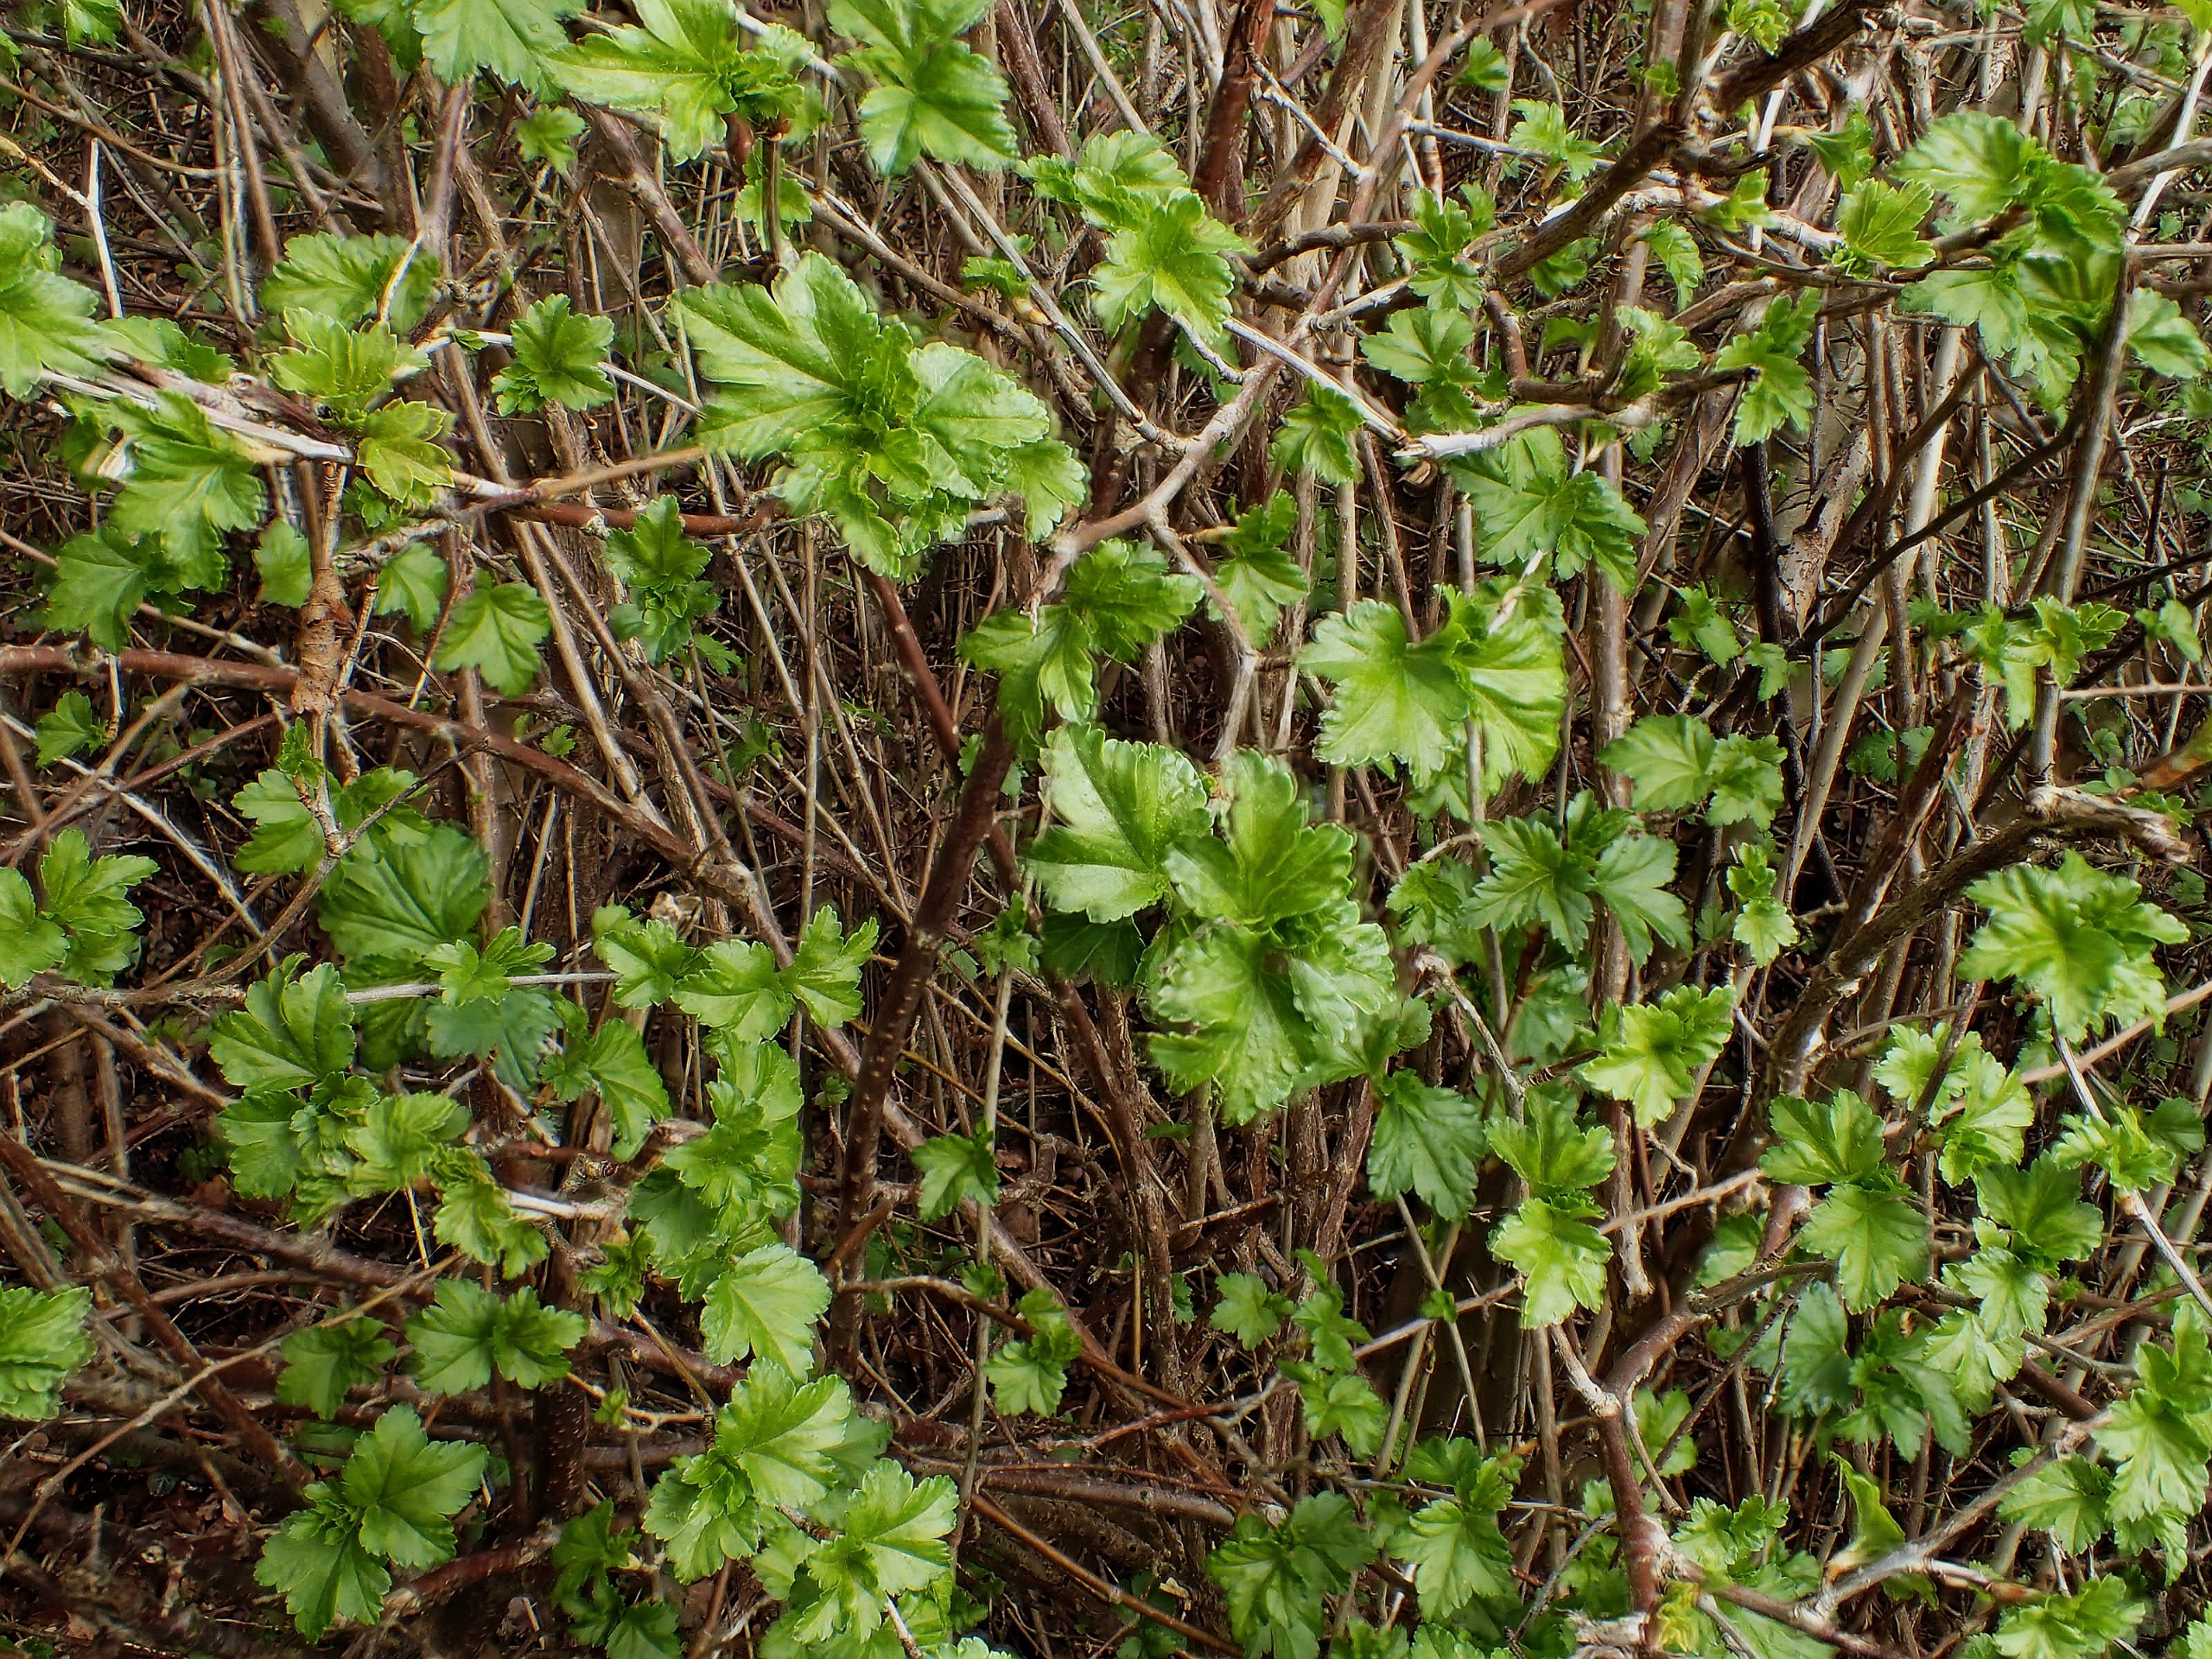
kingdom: Plantae
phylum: Tracheophyta
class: Magnoliopsida
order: Saxifragales
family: Grossulariaceae
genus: Ribes
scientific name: Ribes alpinum
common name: Fjeld-ribs
